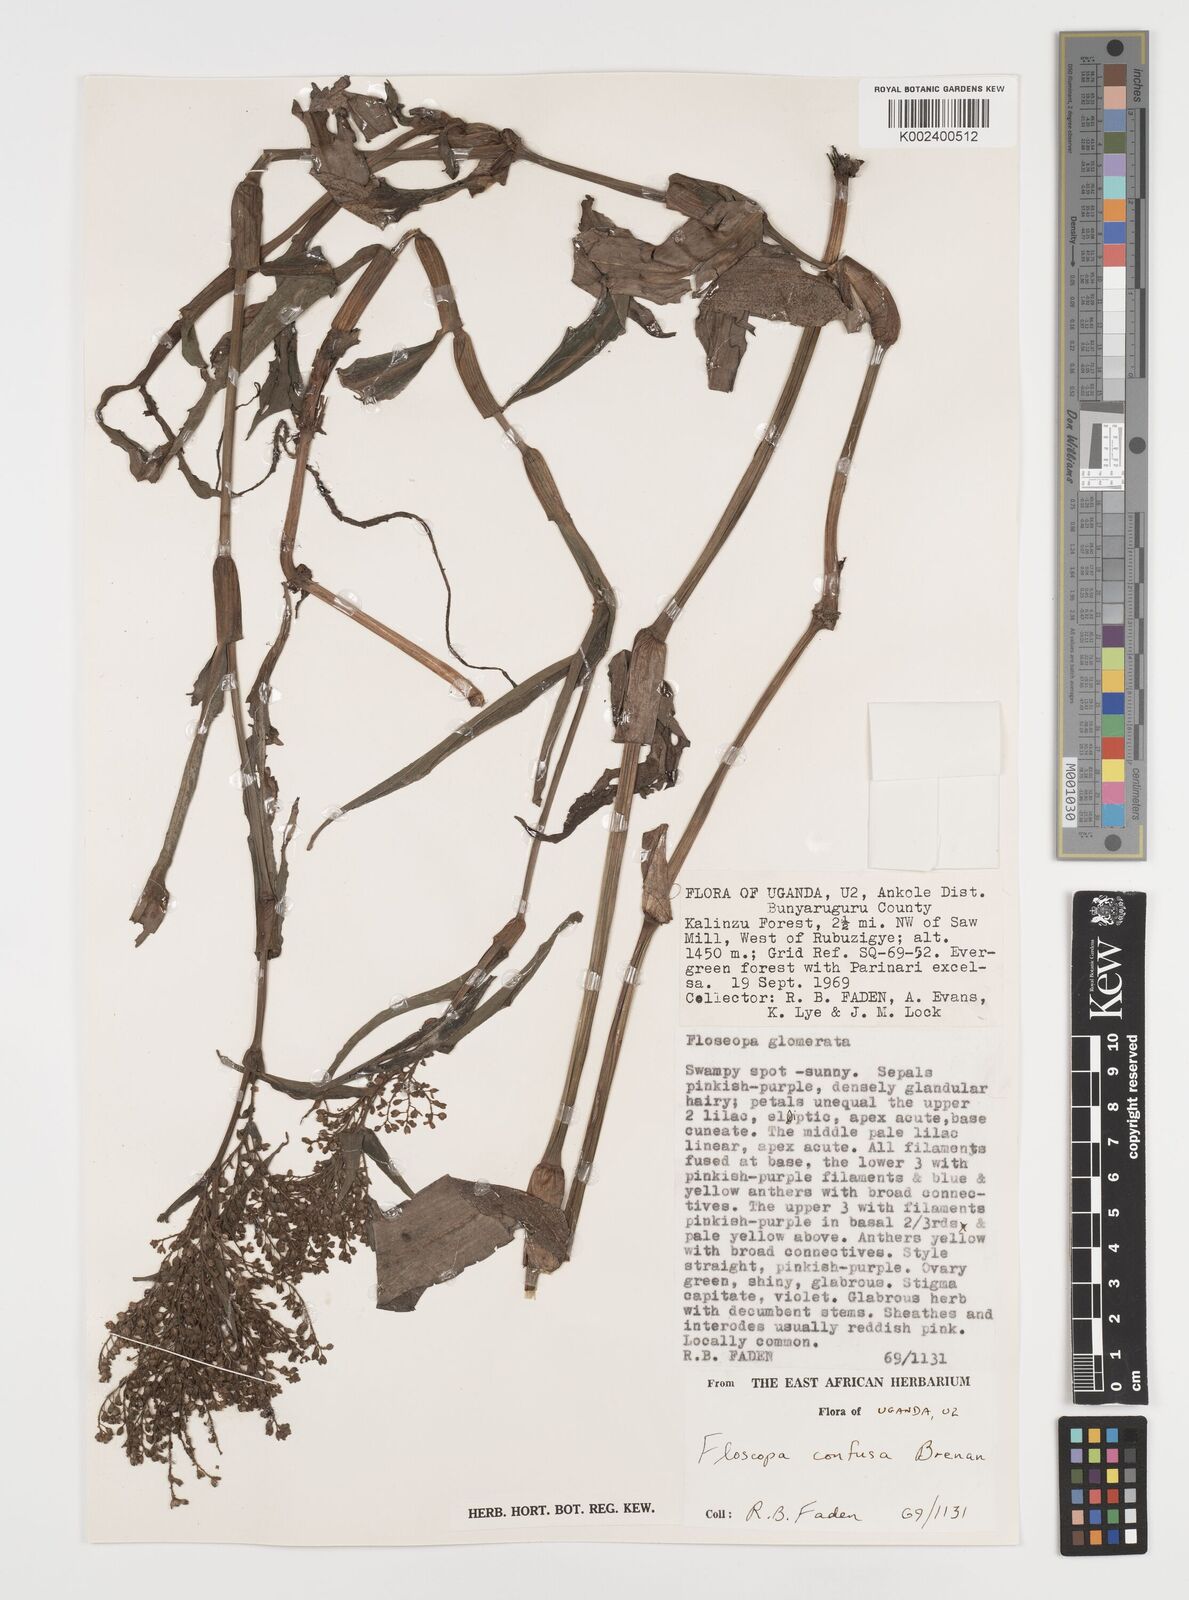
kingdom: Plantae
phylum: Tracheophyta
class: Liliopsida
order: Commelinales
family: Commelinaceae
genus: Floscopa
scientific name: Floscopa confusa
